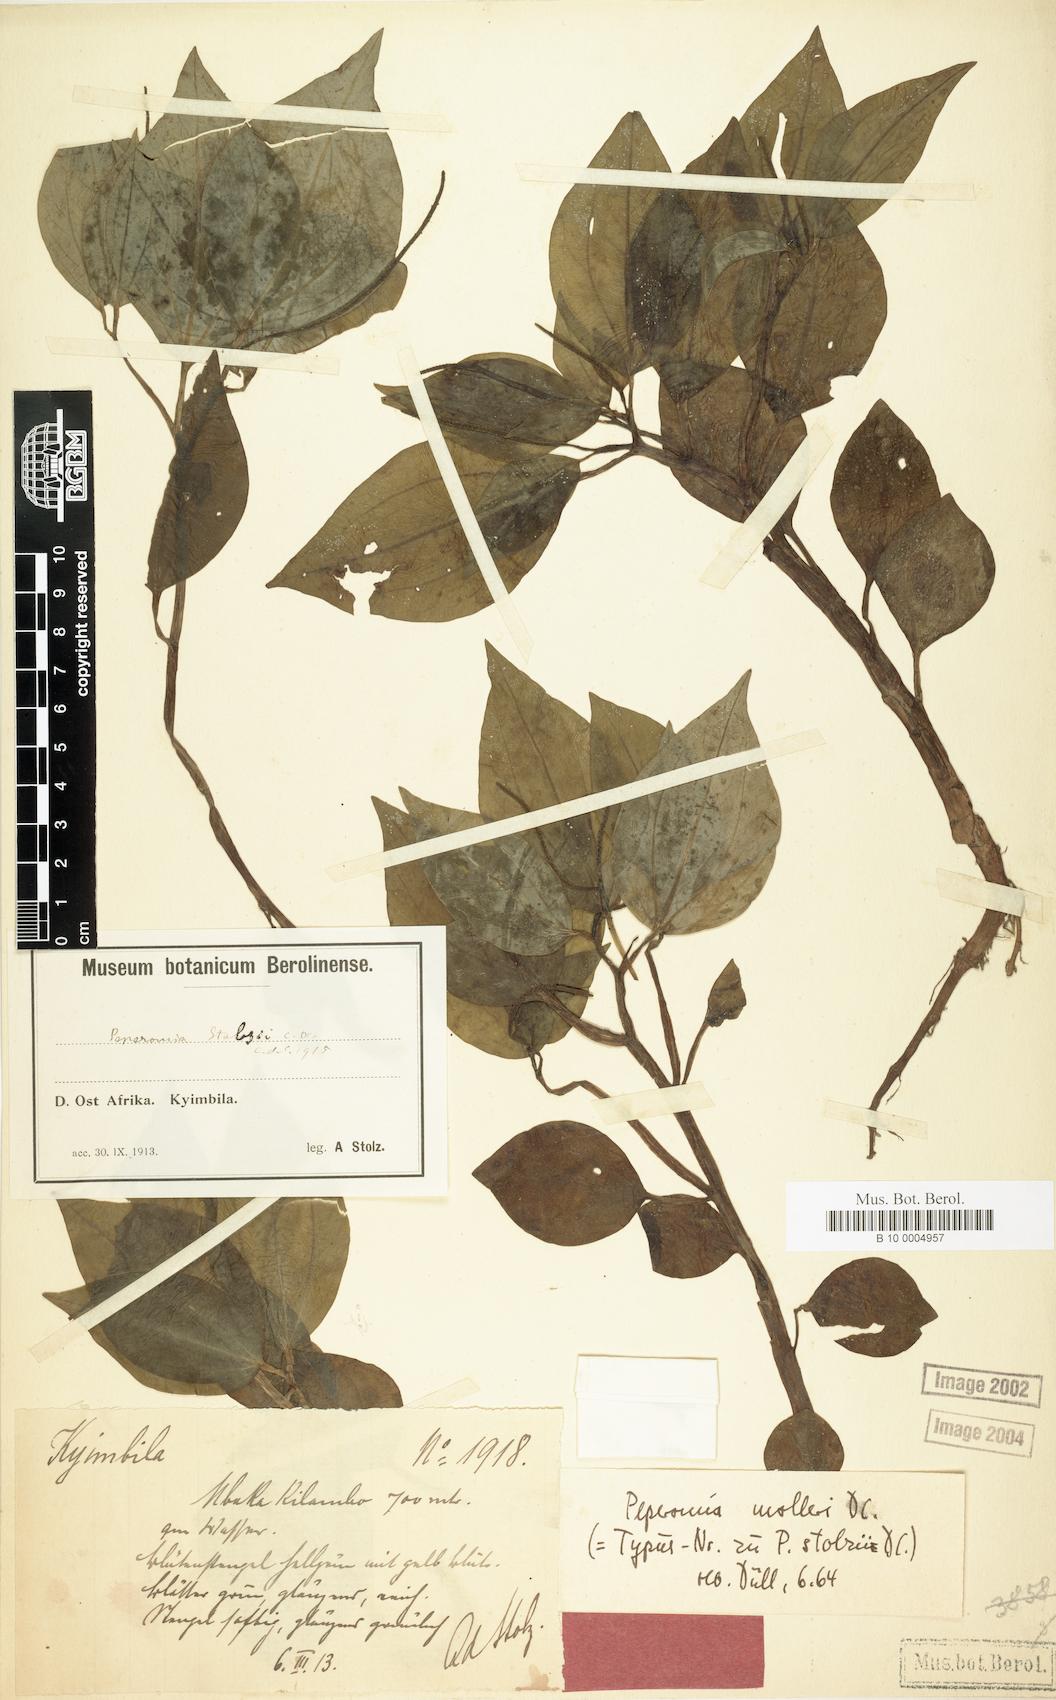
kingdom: Plantae
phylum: Tracheophyta
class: Magnoliopsida
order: Piperales
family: Piperaceae
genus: Peperomia
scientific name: Peperomia molleri
